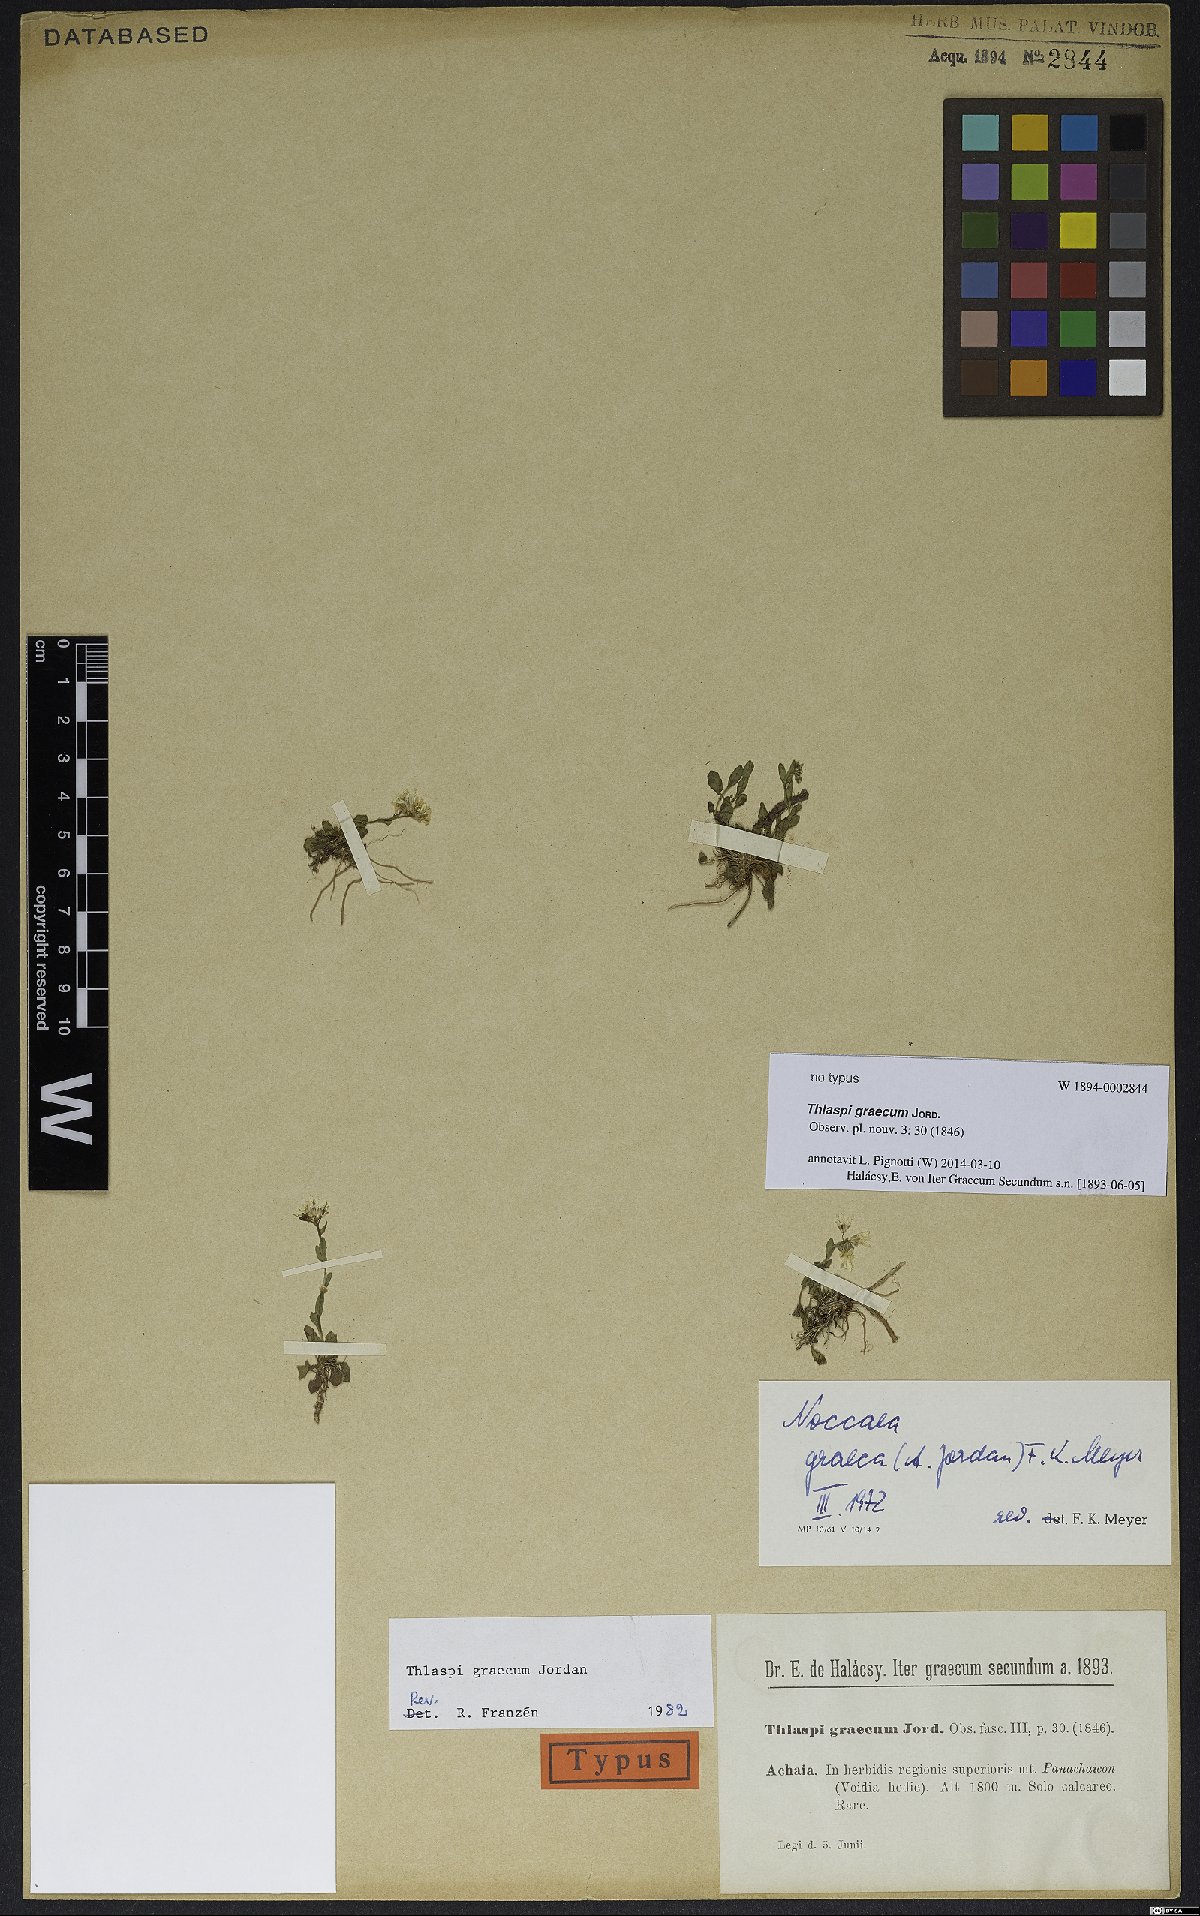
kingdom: Plantae
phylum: Tracheophyta
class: Magnoliopsida
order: Brassicales
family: Brassicaceae
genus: Noccaea
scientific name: Noccaea graeca
